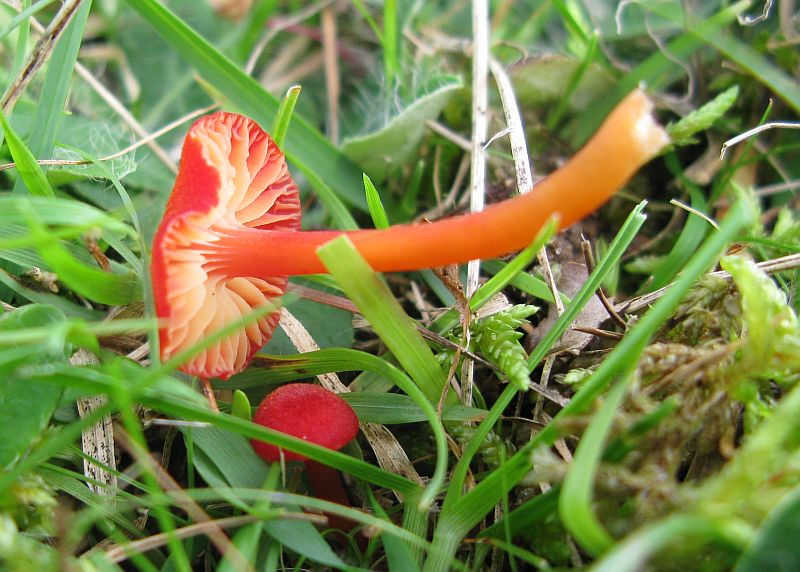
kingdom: Fungi
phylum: Basidiomycota
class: Agaricomycetes
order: Agaricales
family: Hygrophoraceae
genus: Hygrocybe
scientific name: Hygrocybe helobia
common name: hvidløgs-vokshat
